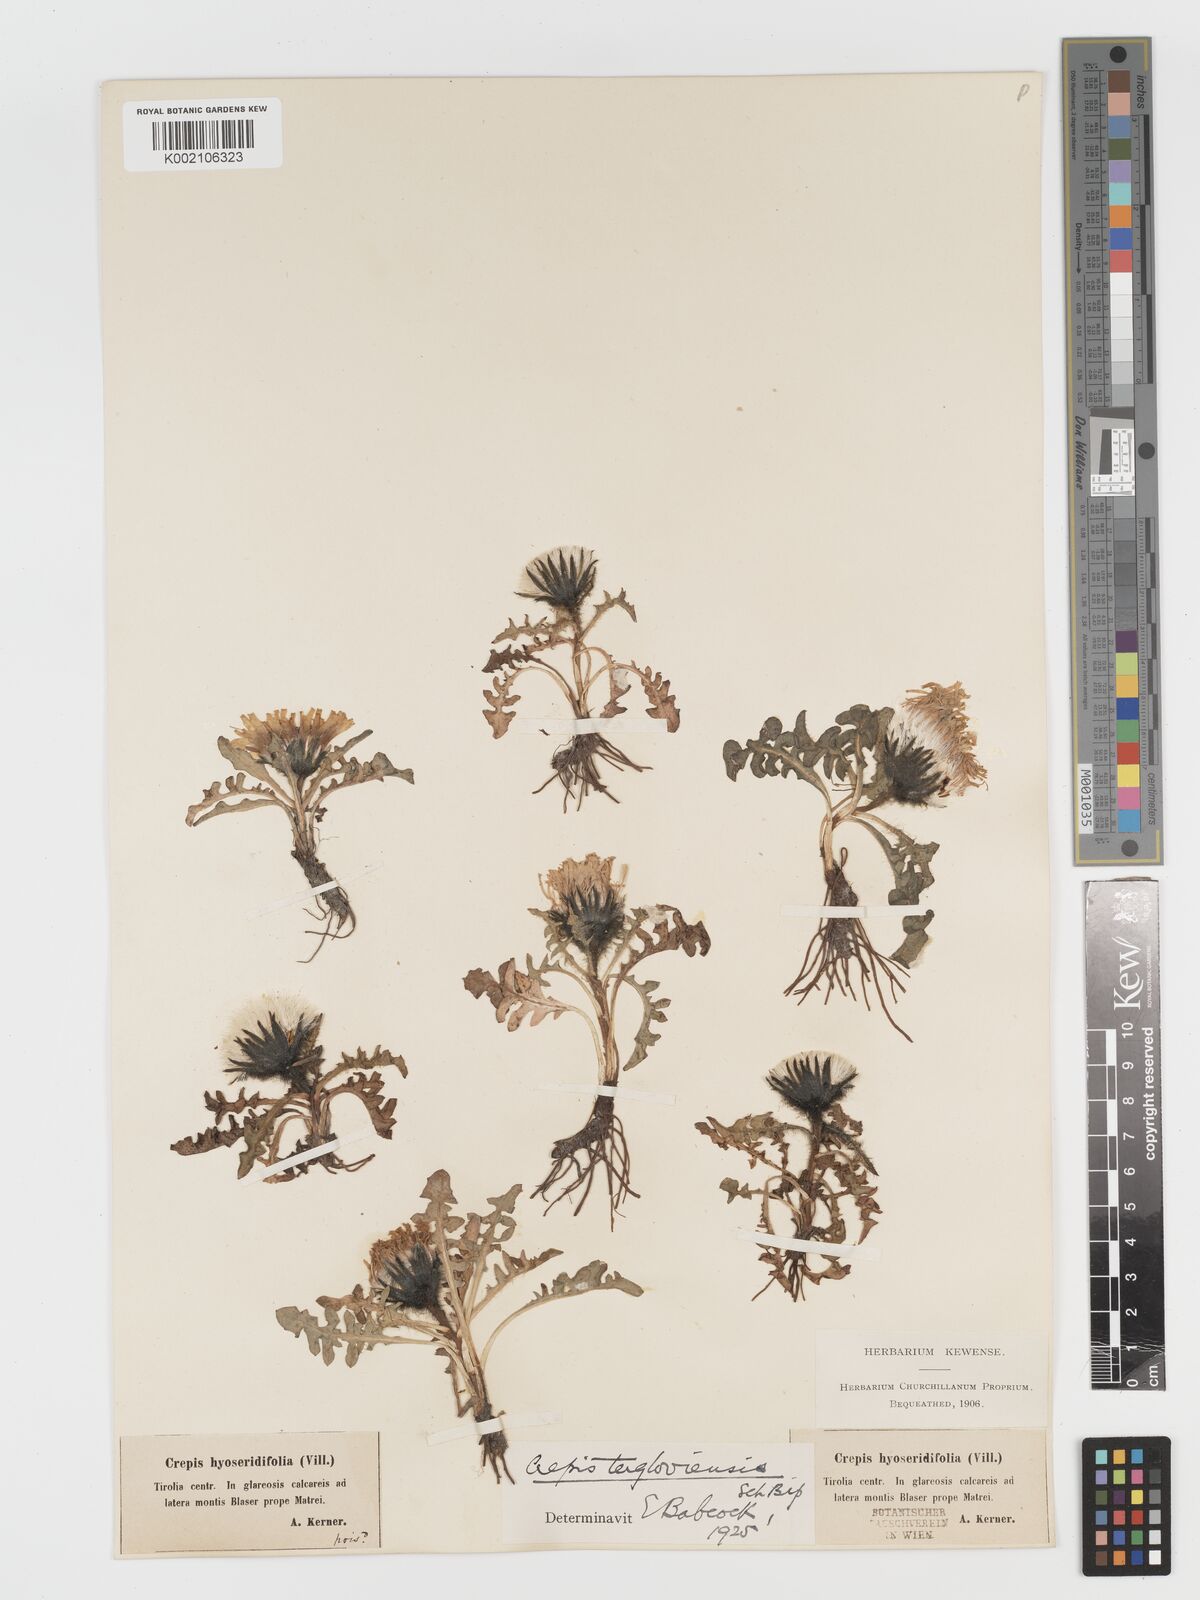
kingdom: Plantae
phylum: Tracheophyta
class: Magnoliopsida
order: Asterales
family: Asteraceae
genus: Crepis
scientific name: Crepis terglouensis
